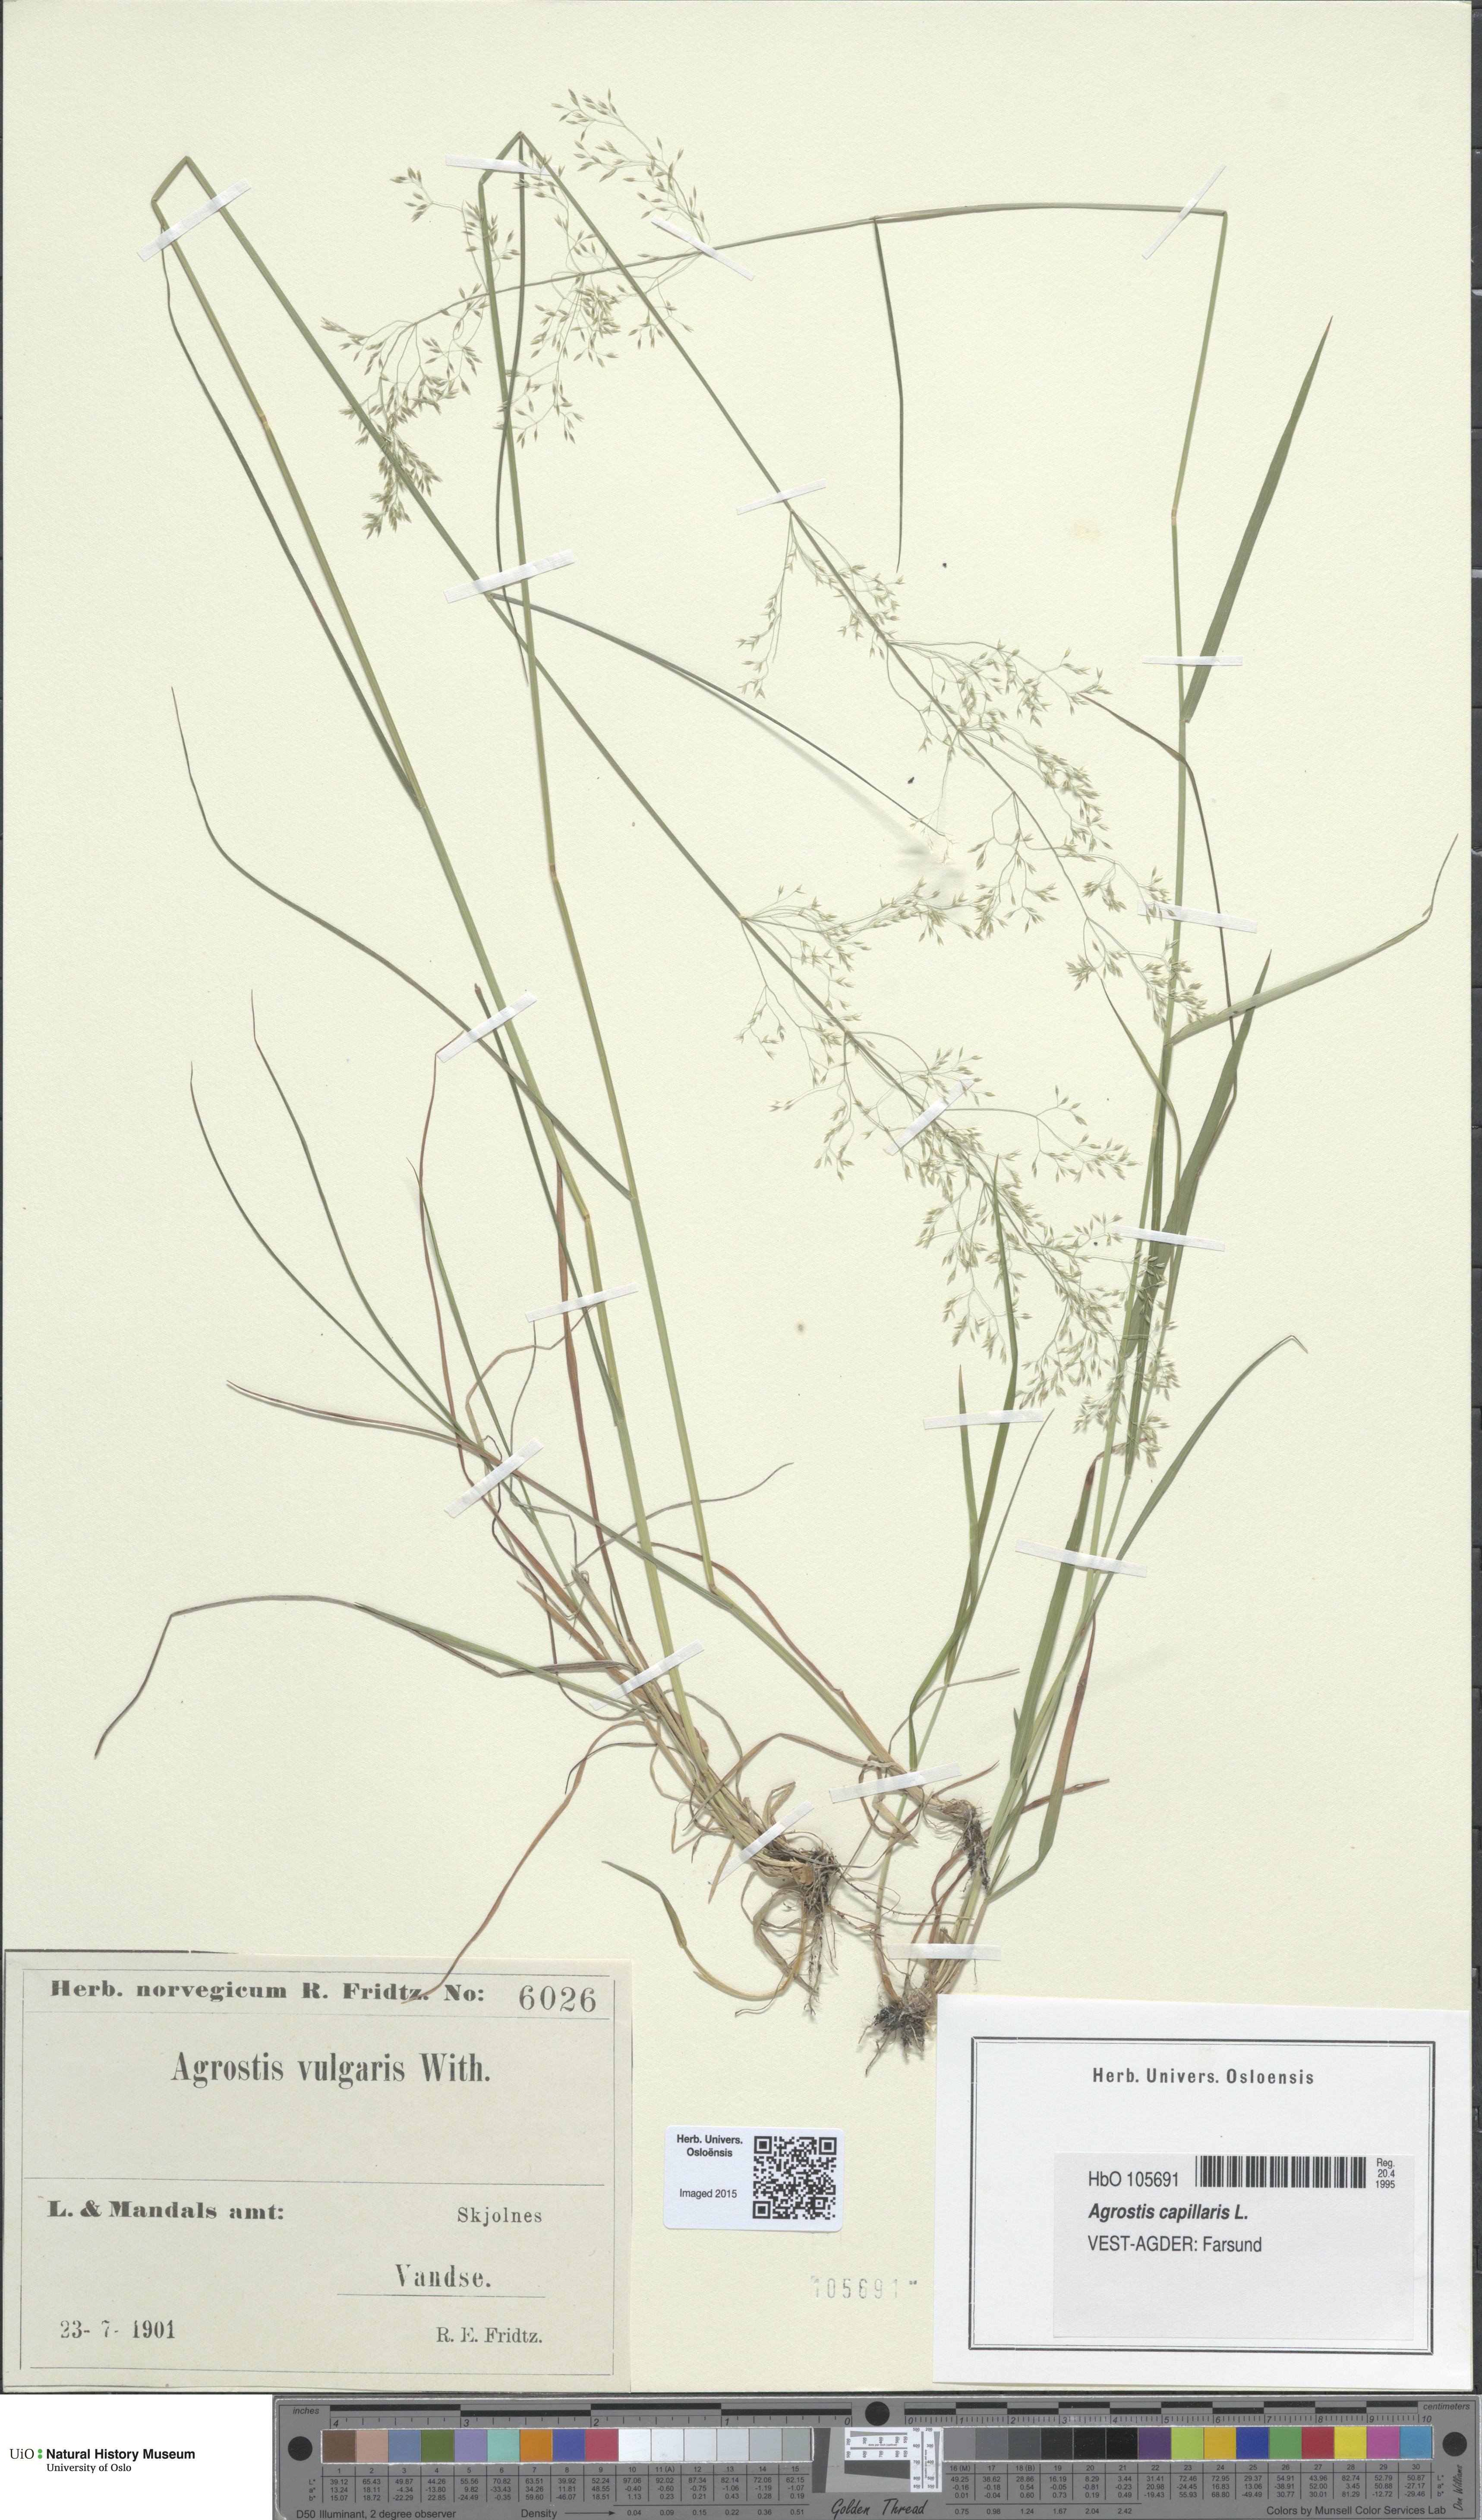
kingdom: Plantae
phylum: Tracheophyta
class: Liliopsida
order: Poales
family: Poaceae
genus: Agrostis
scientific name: Agrostis capillaris
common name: Colonial bentgrass
